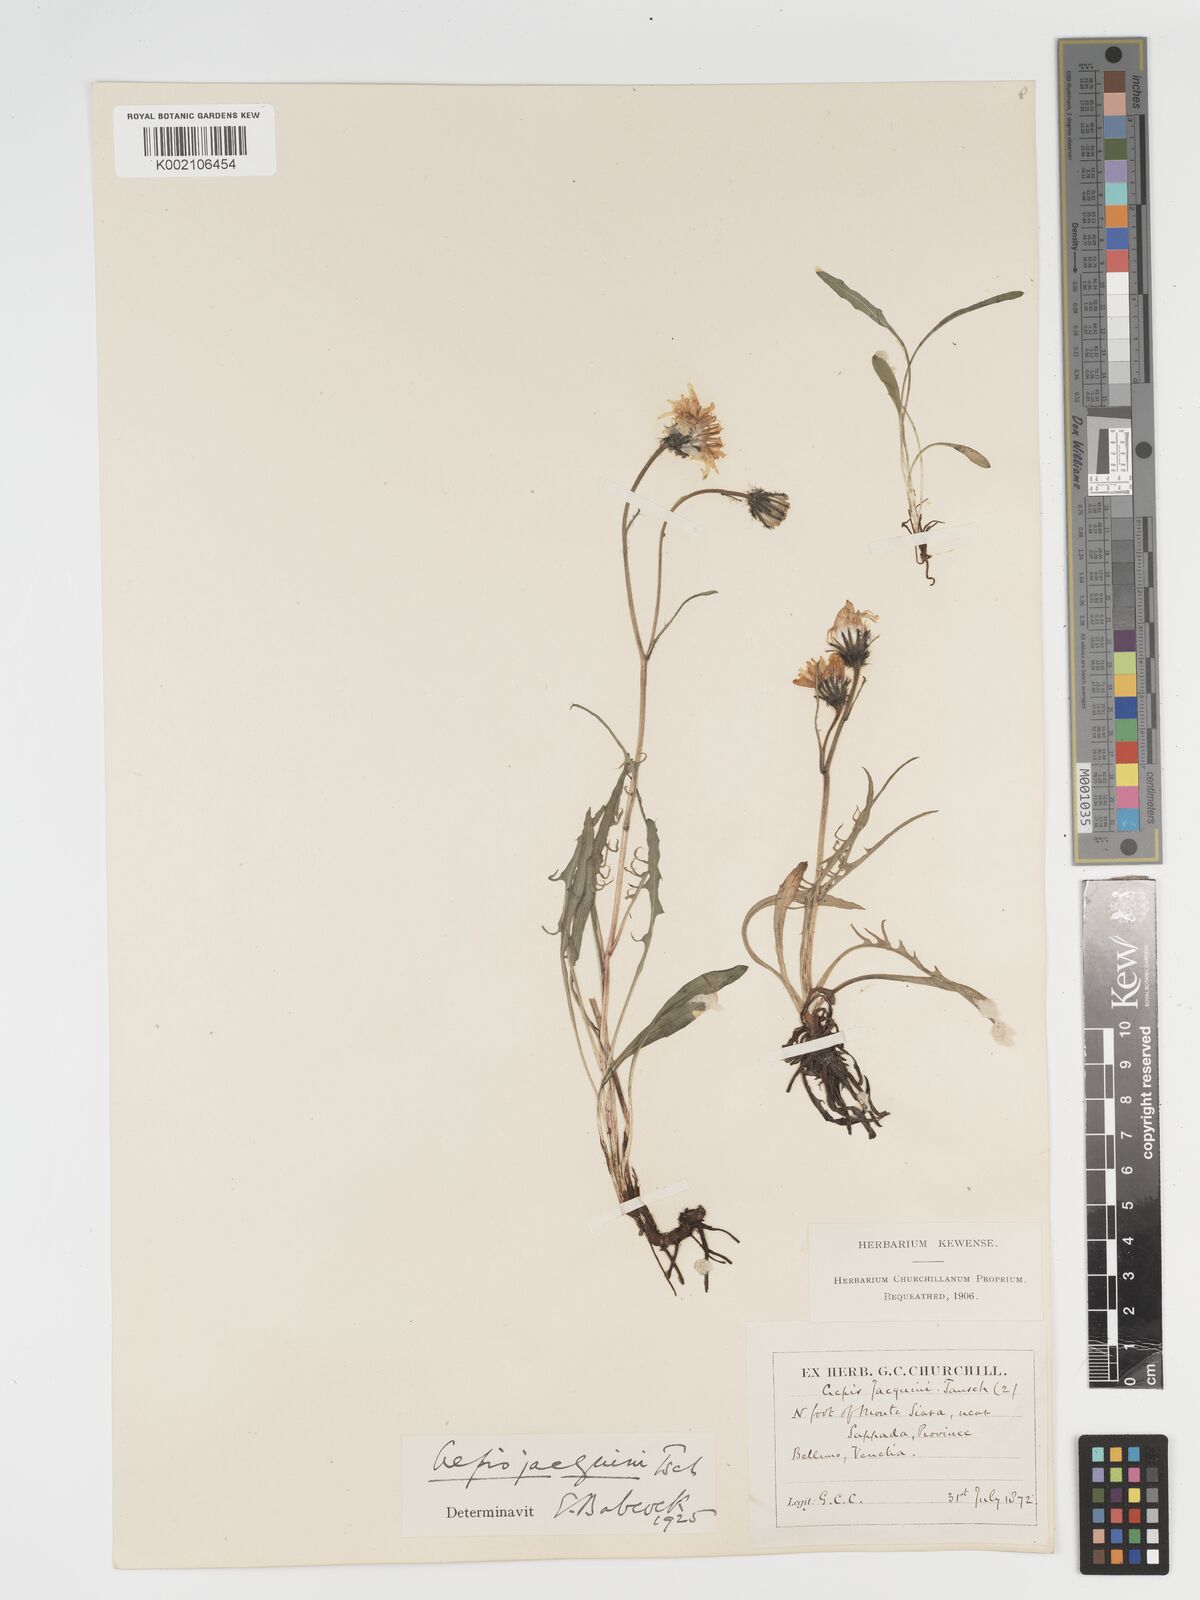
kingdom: Plantae
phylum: Tracheophyta
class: Magnoliopsida
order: Asterales
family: Asteraceae
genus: Crepis
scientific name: Crepis jacquinii
